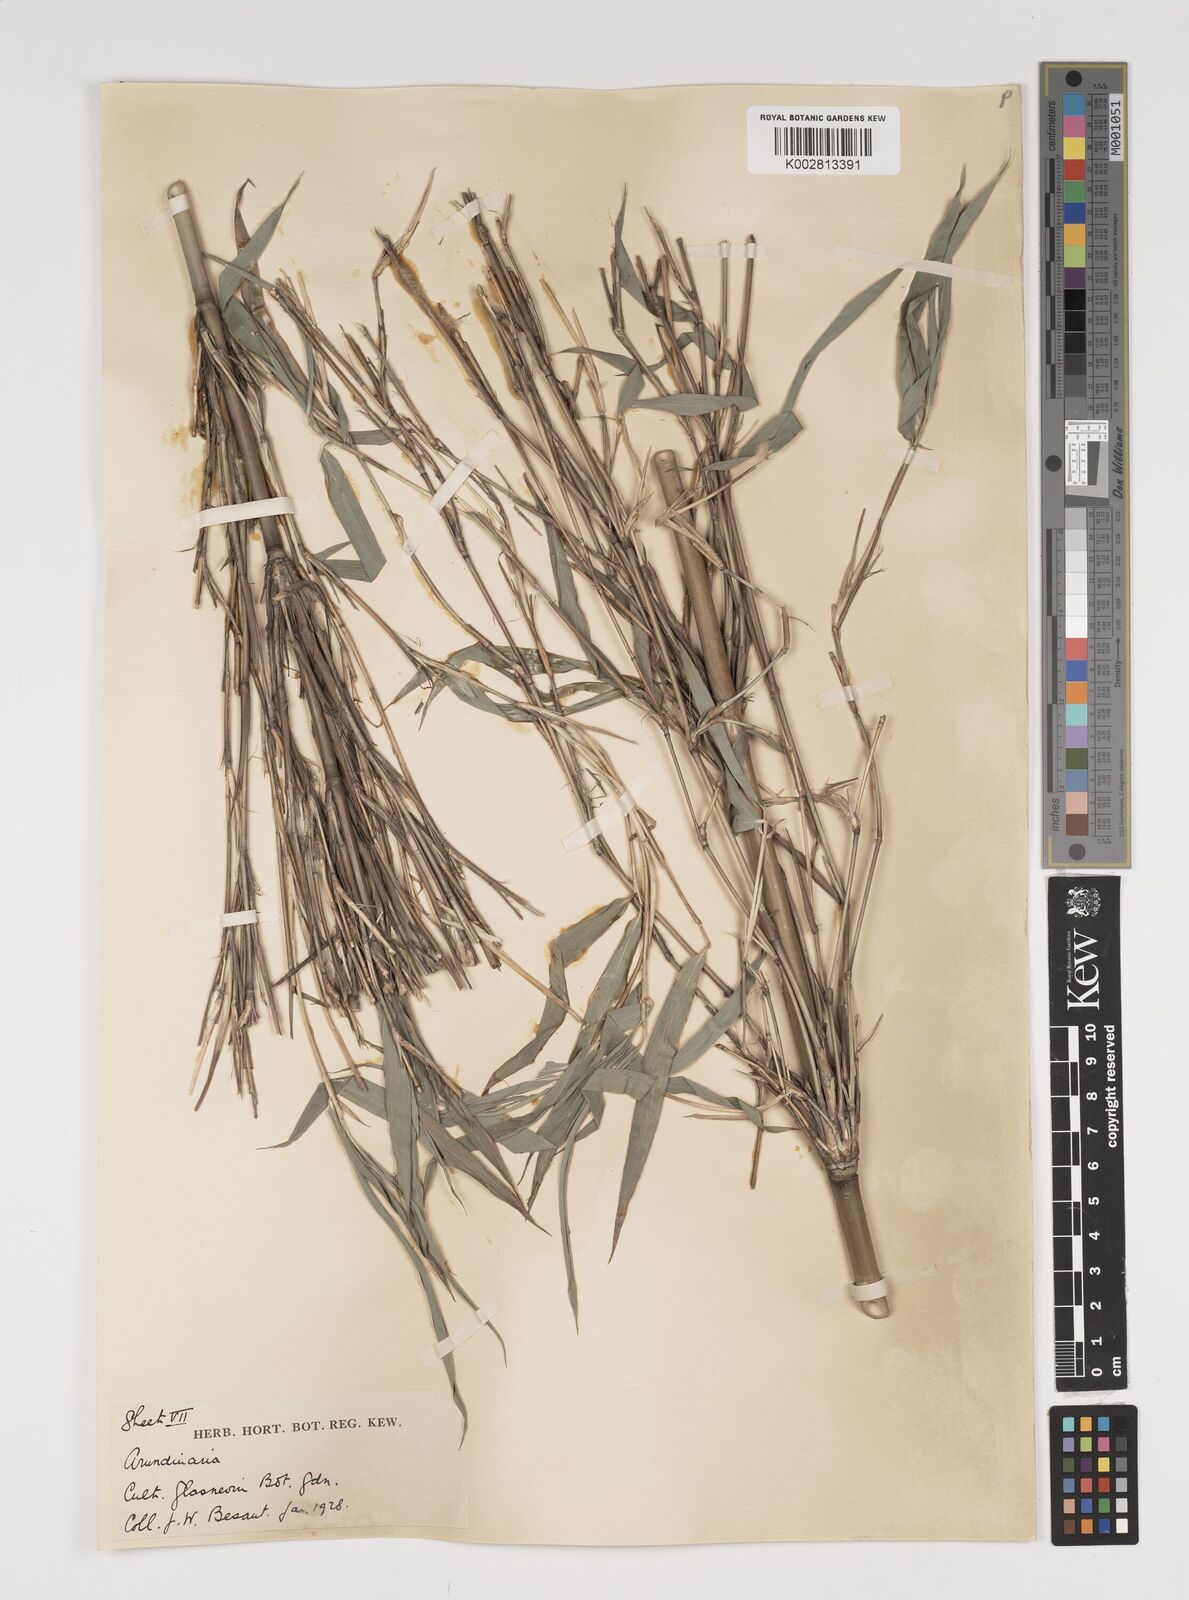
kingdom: Plantae
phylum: Tracheophyta
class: Liliopsida
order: Poales
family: Poaceae
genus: Thamnocalamus
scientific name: Thamnocalamus spathiflorus
